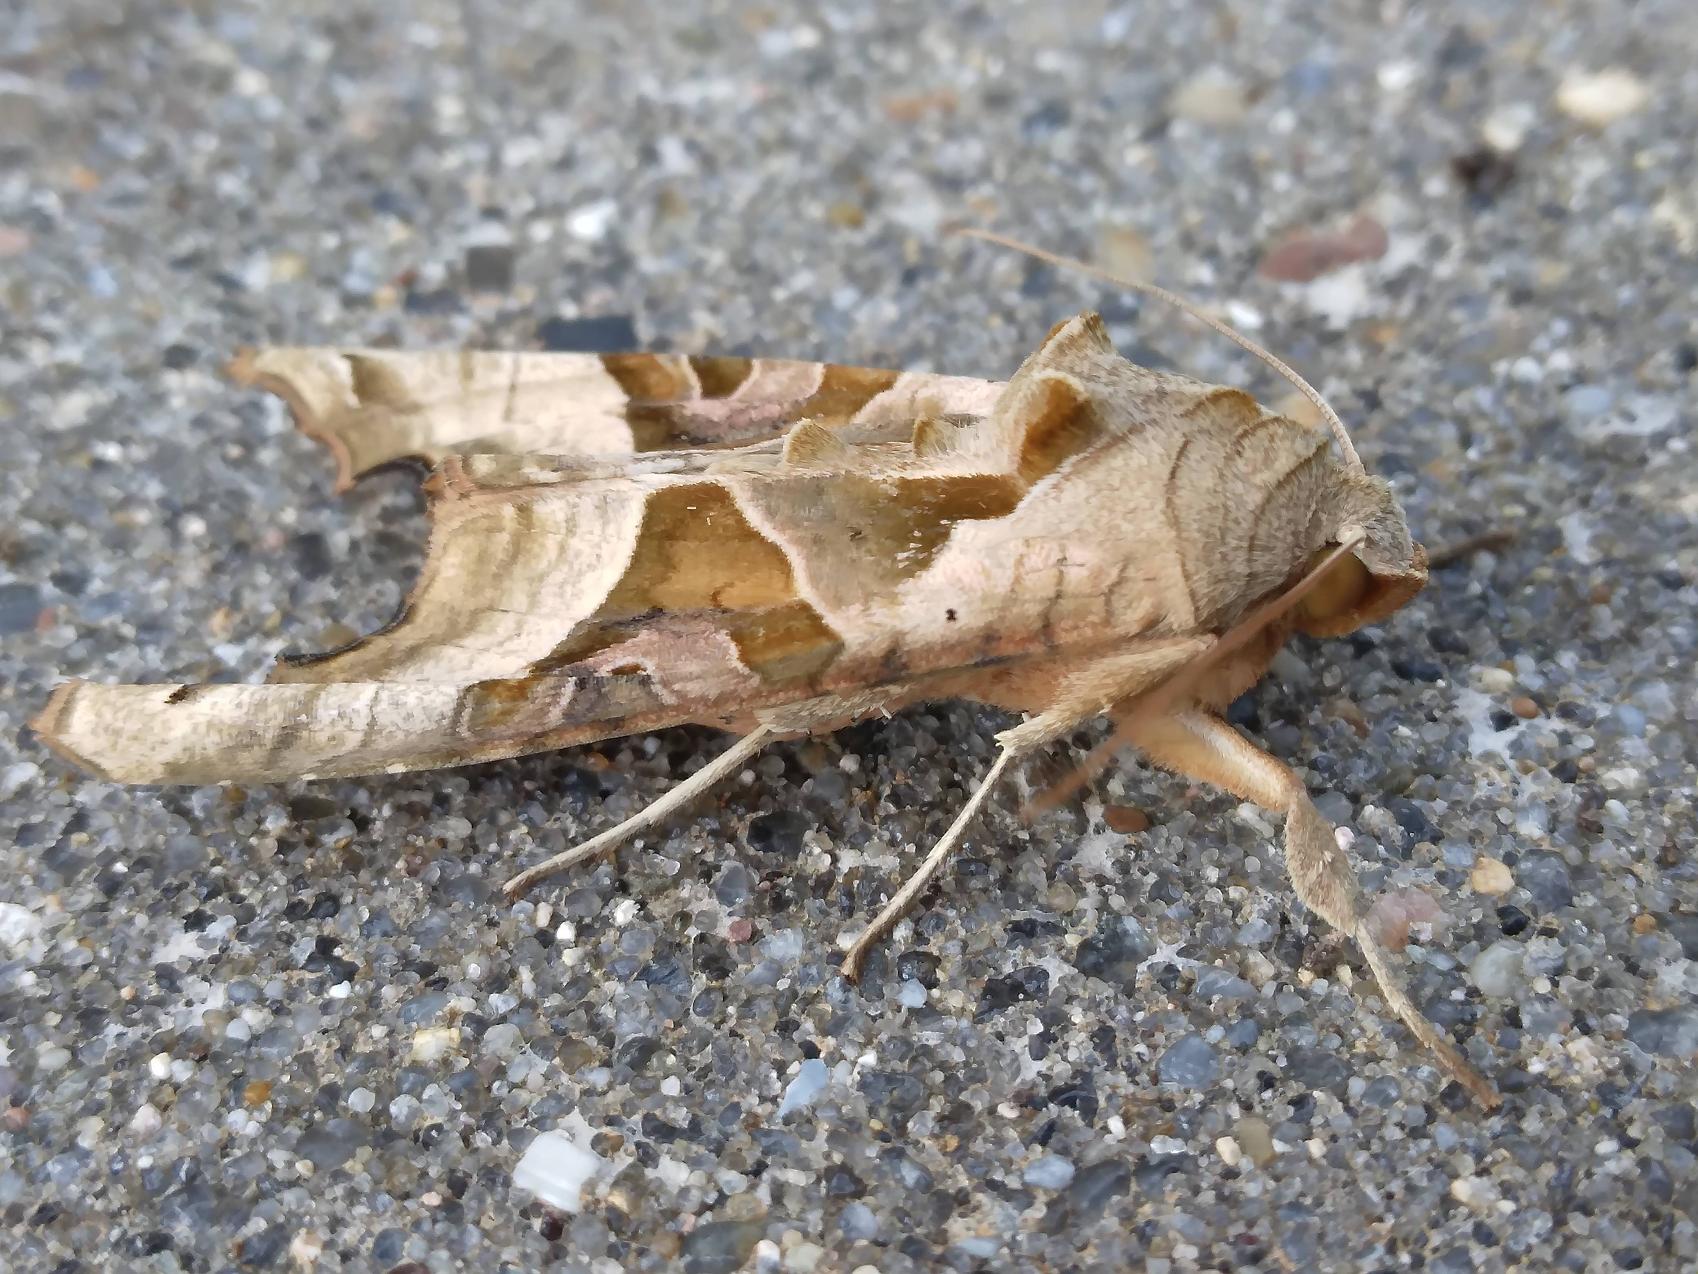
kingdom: Animalia
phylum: Arthropoda
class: Insecta
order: Lepidoptera
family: Noctuidae
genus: Phlogophora
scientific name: Phlogophora meticulosa
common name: Agatugle
